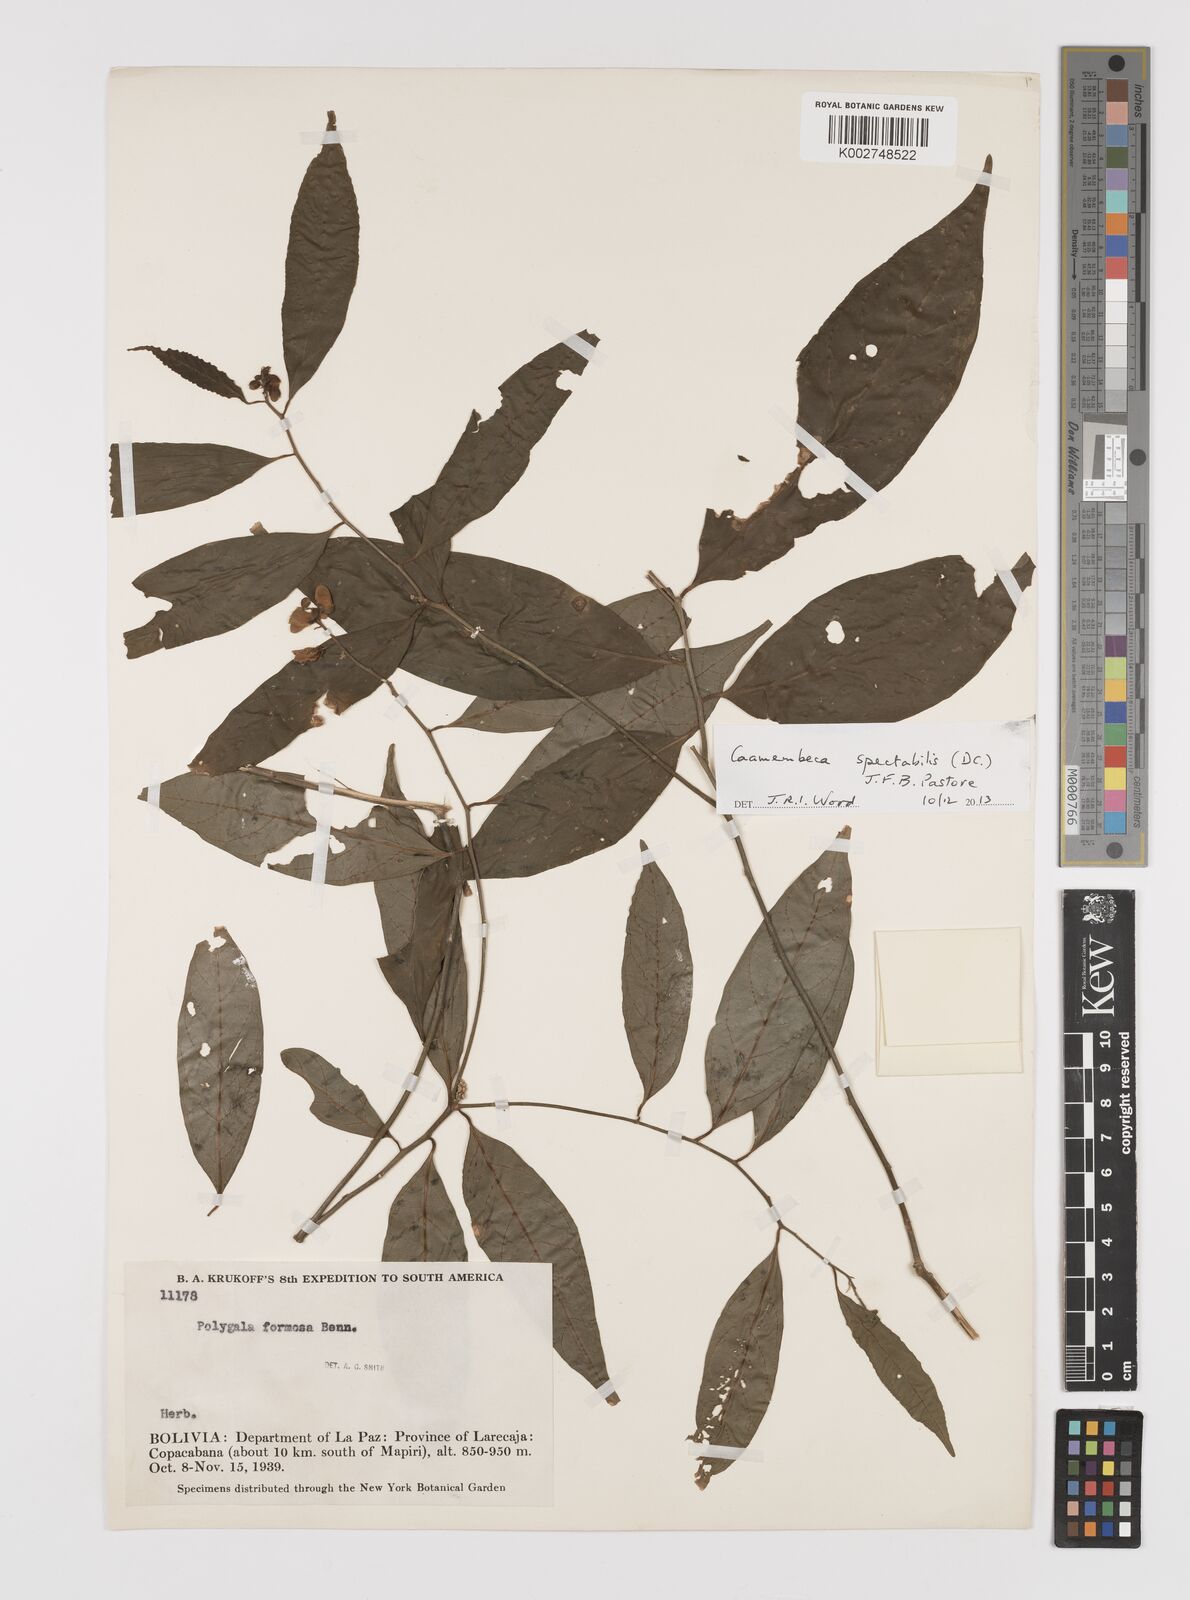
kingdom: Plantae
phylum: Tracheophyta
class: Magnoliopsida
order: Fabales
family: Polygalaceae
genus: Caamembeca
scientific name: Caamembeca spectabilis
